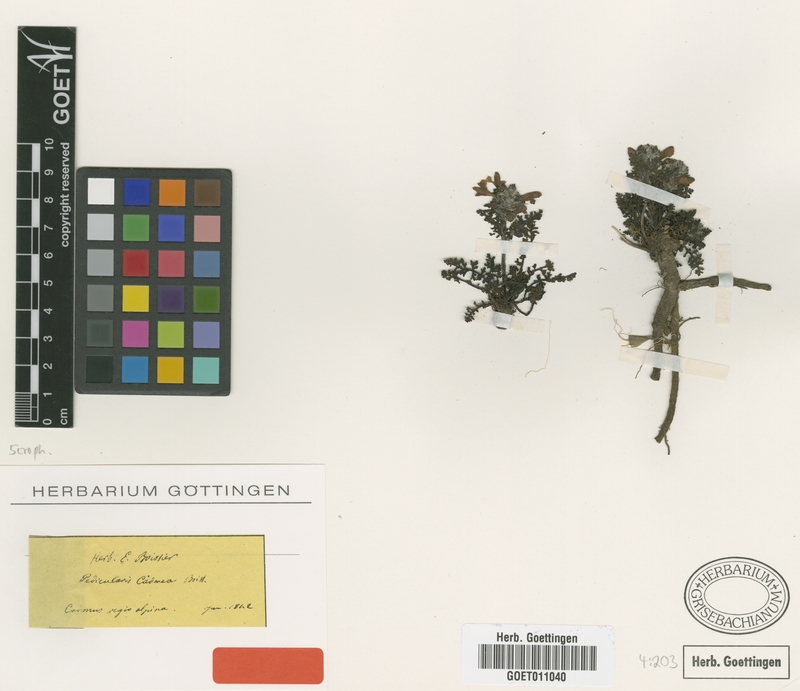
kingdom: Plantae
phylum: Tracheophyta
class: Magnoliopsida
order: Lamiales
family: Orobanchaceae
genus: Pedicularis
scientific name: Pedicularis cadmea
